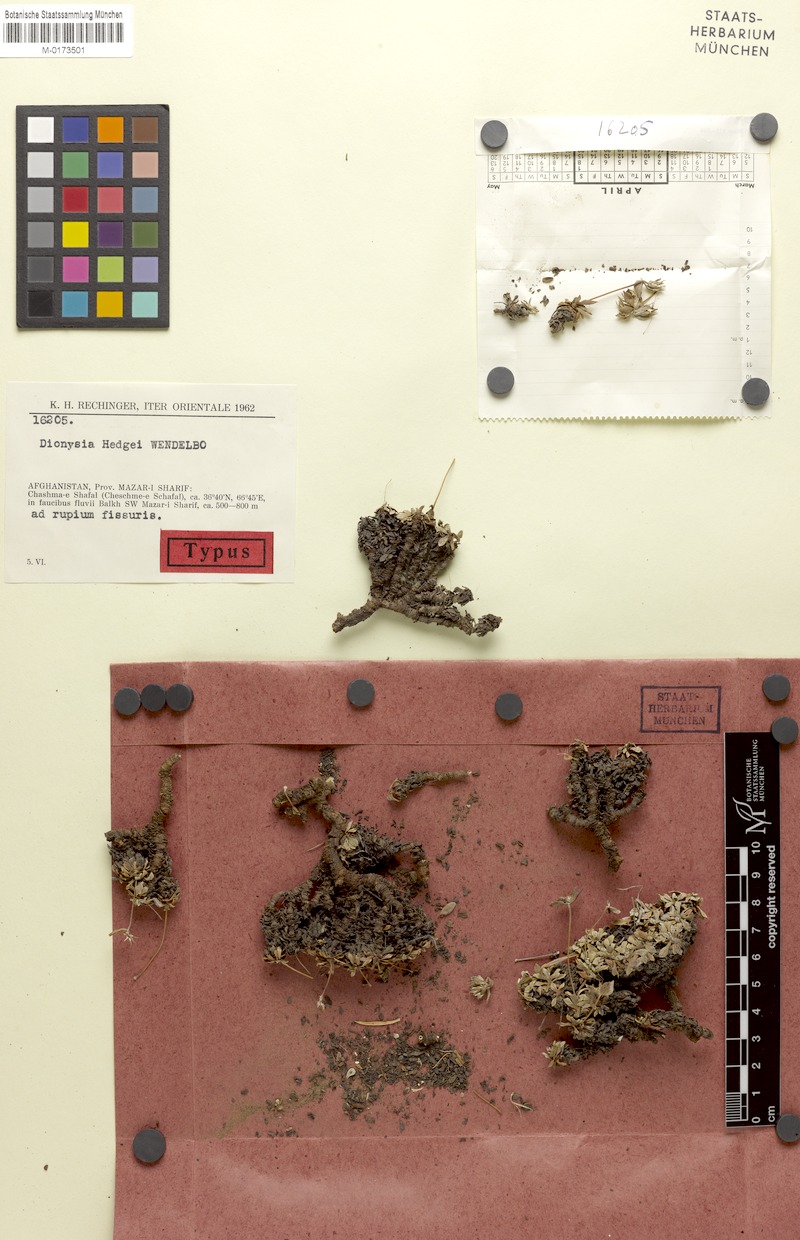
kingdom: Plantae
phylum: Tracheophyta
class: Magnoliopsida
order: Ericales
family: Primulaceae
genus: Dionysia
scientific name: Dionysia hedgei
